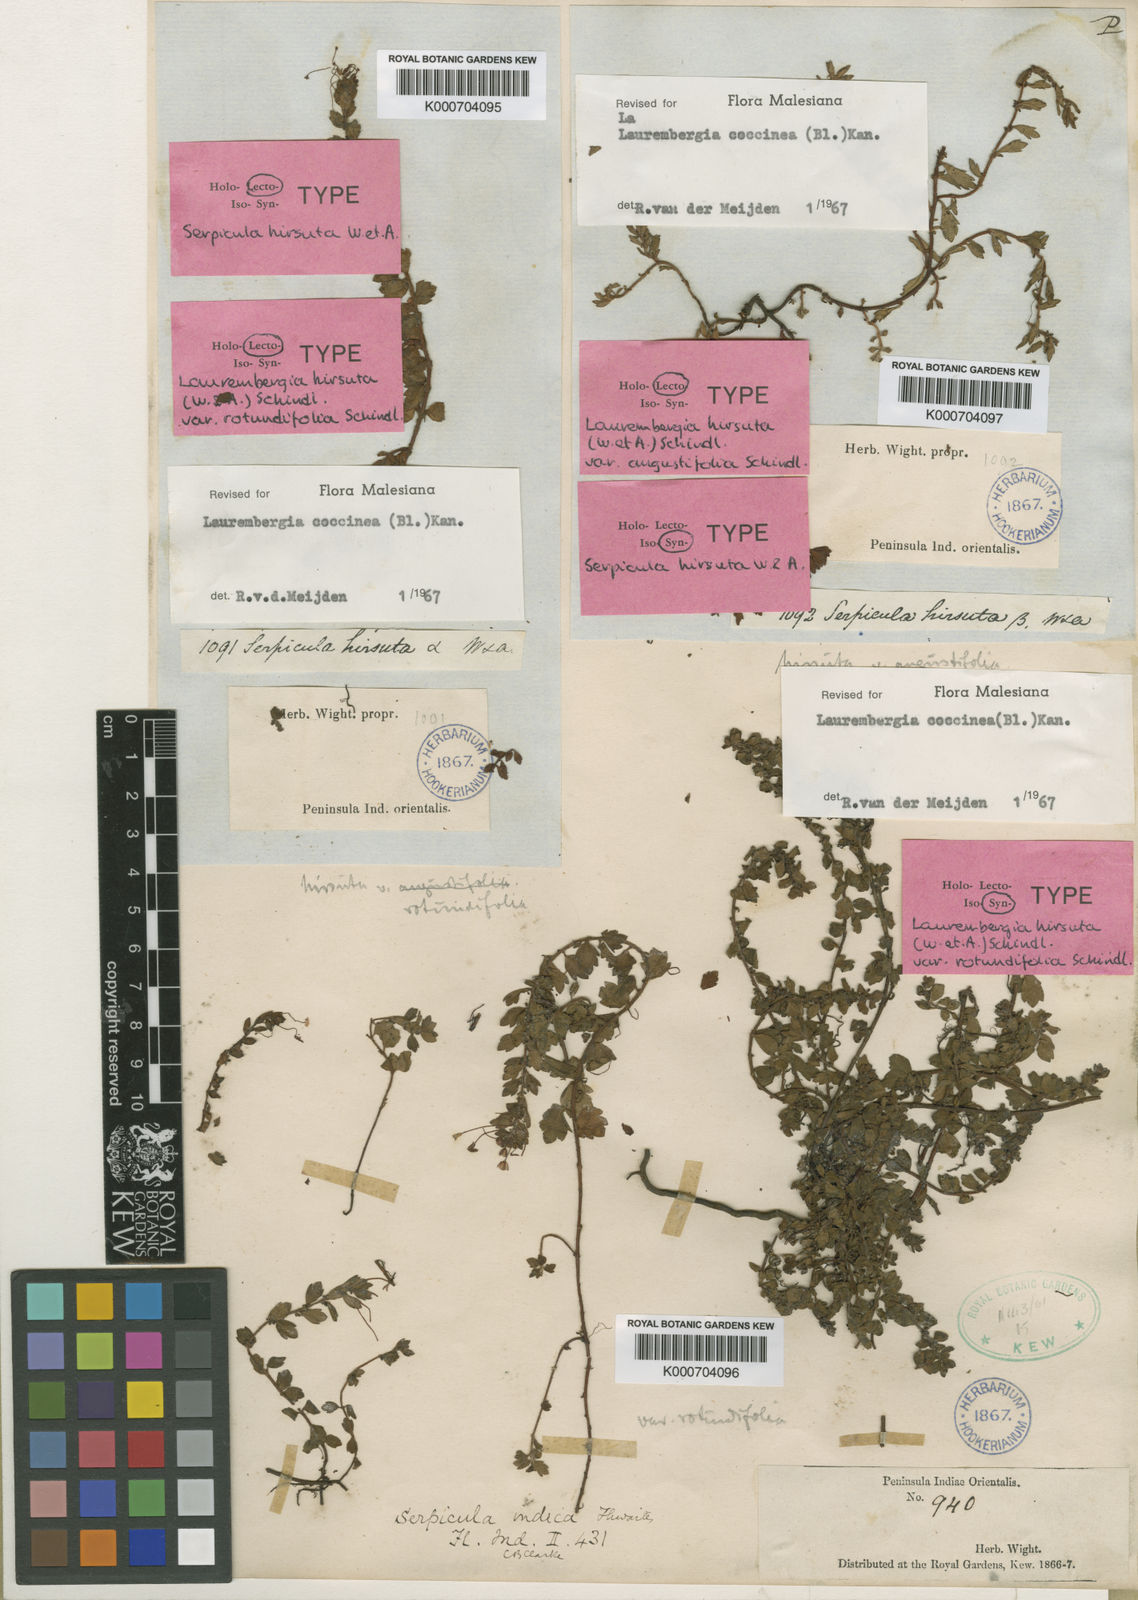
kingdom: Plantae
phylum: Tracheophyta
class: Magnoliopsida
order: Saxifragales
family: Haloragaceae
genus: Laurembergia
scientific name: Laurembergia coccinea
